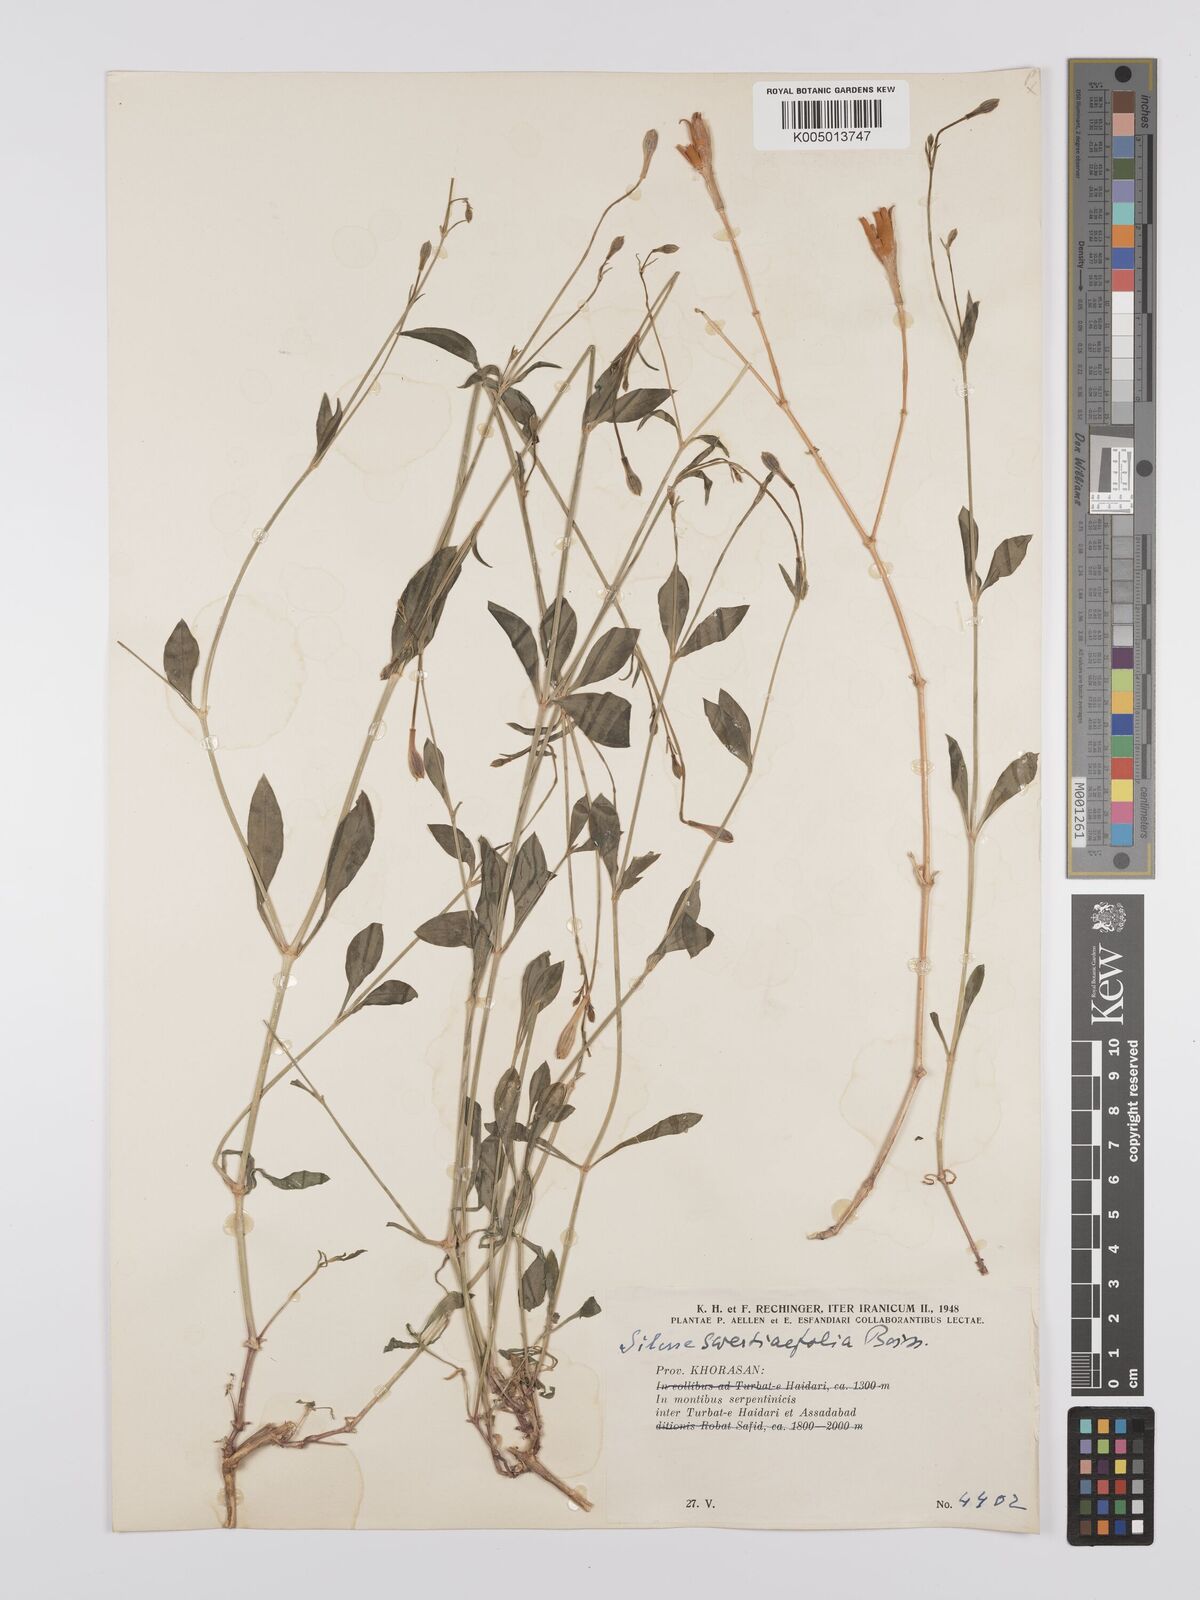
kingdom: Plantae
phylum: Tracheophyta
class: Magnoliopsida
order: Caryophyllales
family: Caryophyllaceae
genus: Silene
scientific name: Silene swertiifolia
